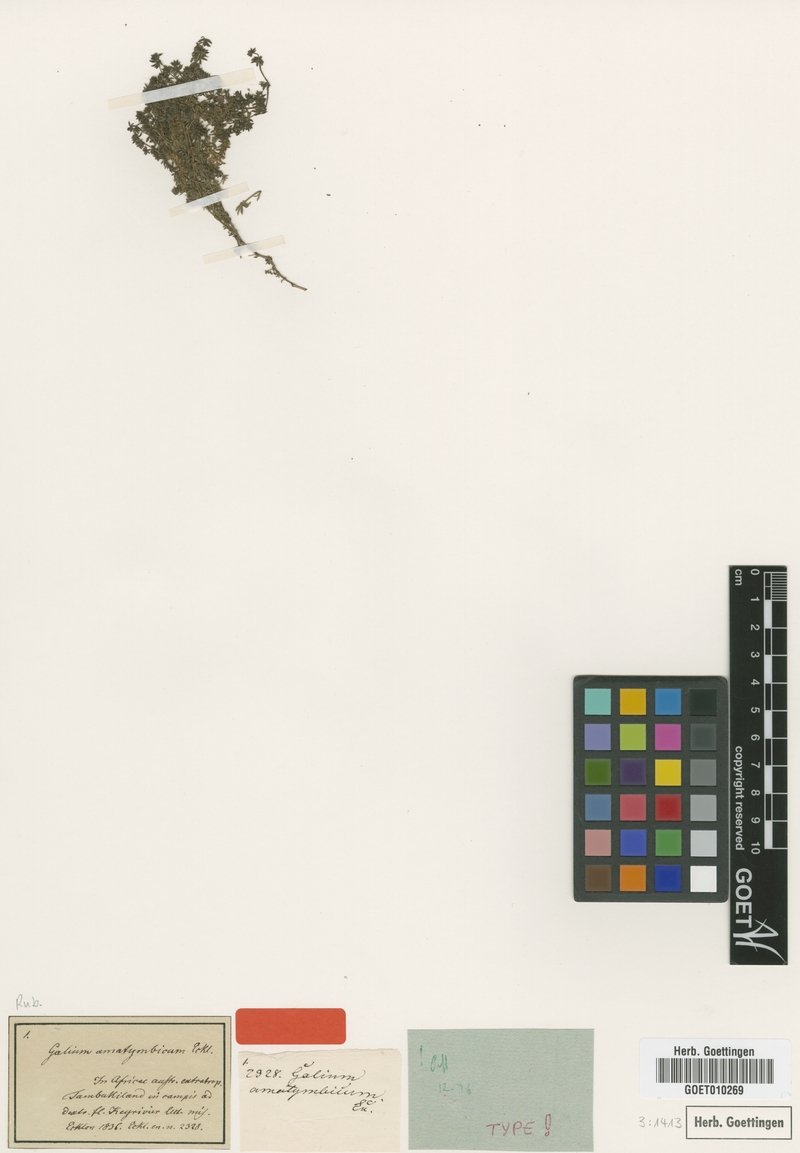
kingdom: Plantae
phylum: Tracheophyta
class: Magnoliopsida
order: Gentianales
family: Rubiaceae
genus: Galium
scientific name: Galium amatymbicum
